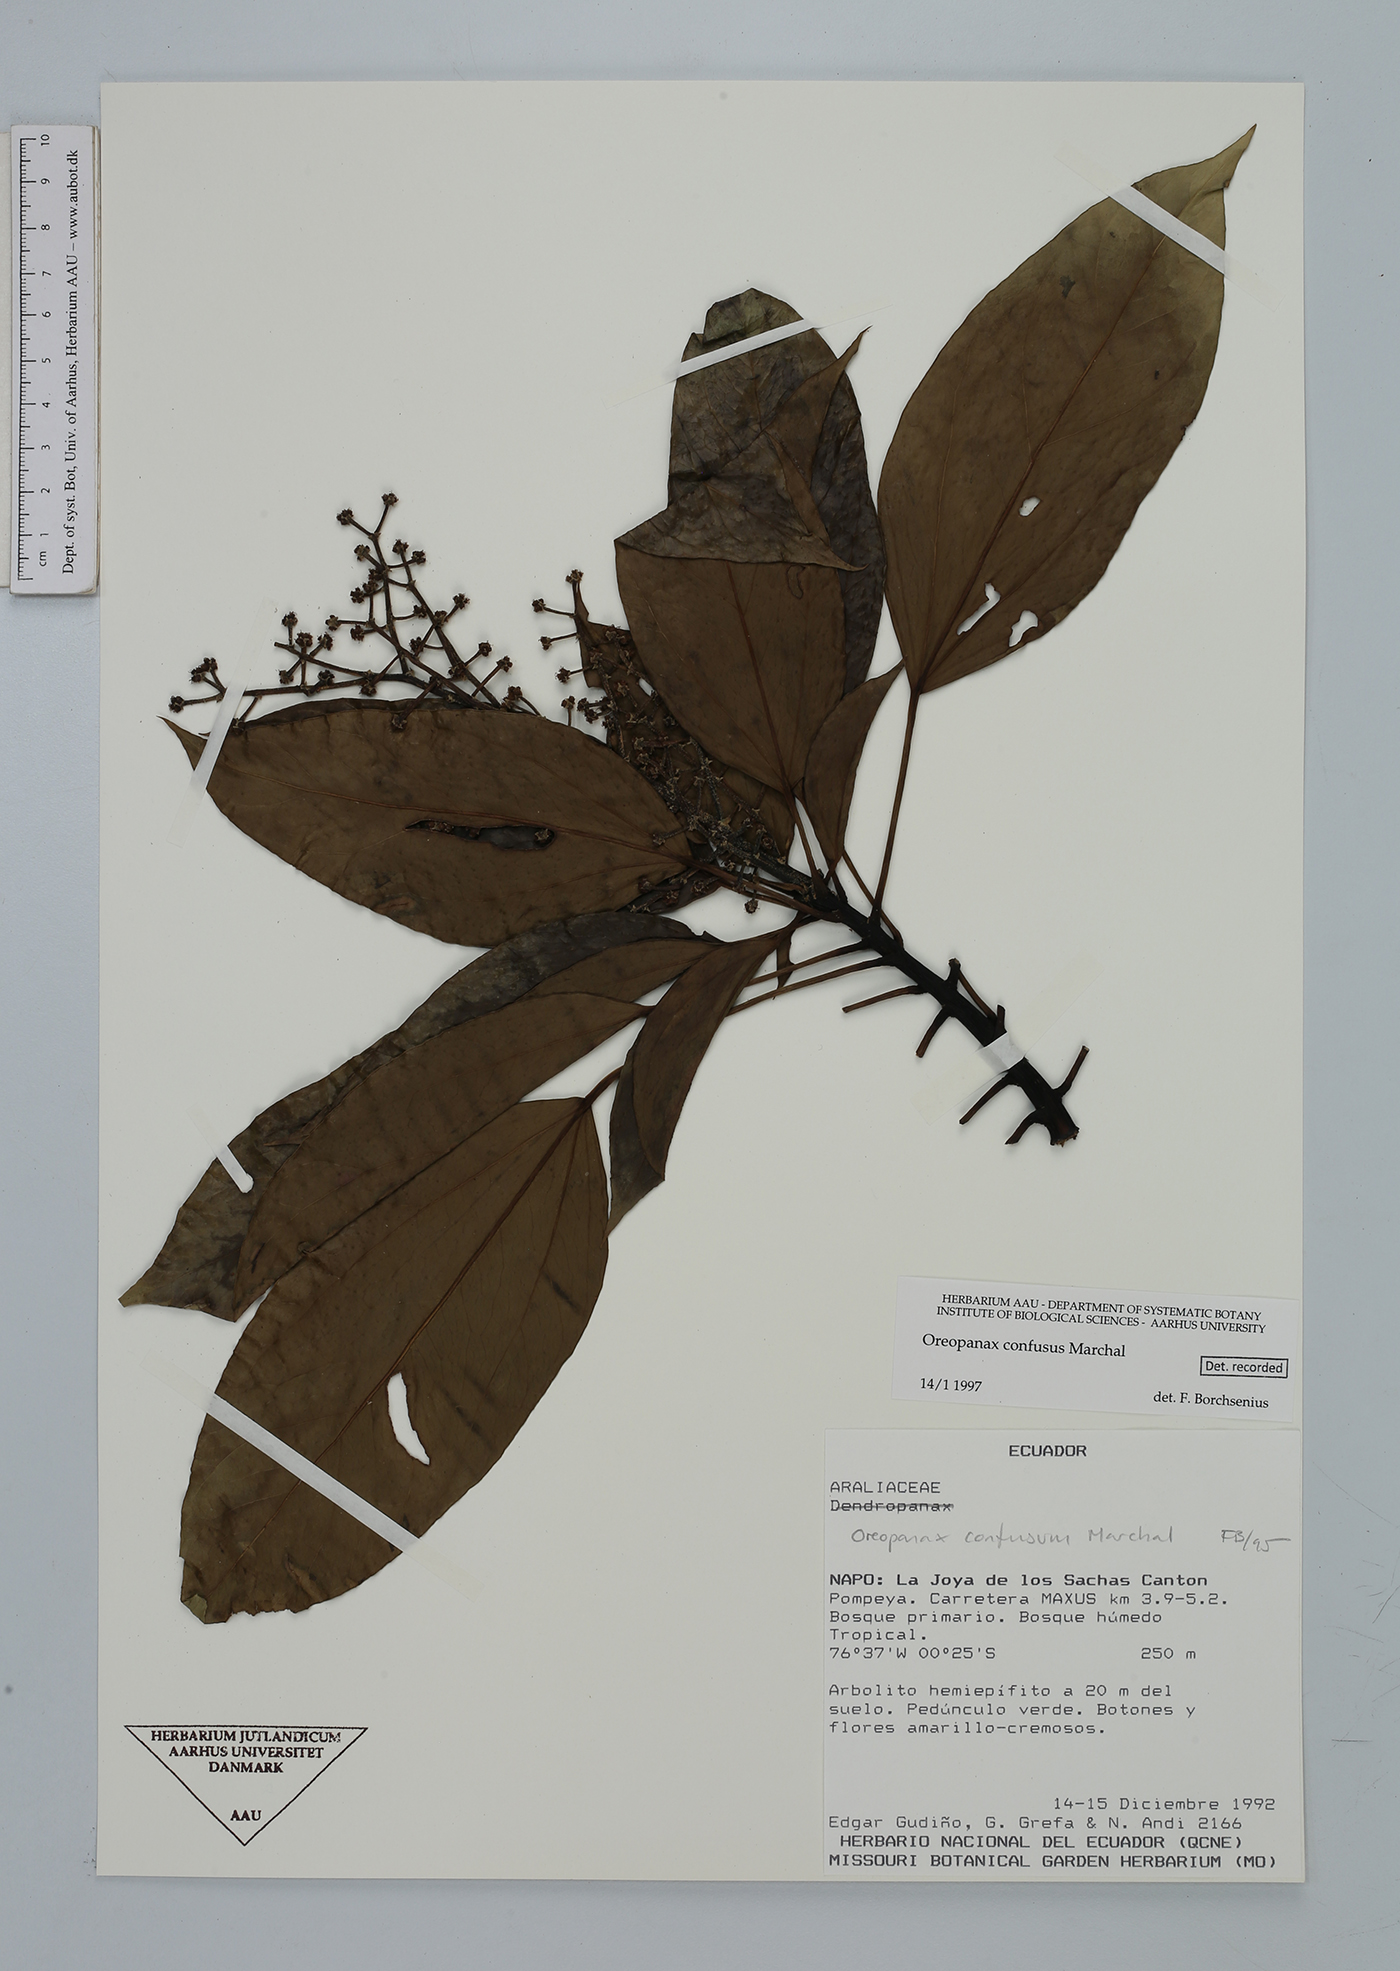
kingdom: Plantae
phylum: Tracheophyta
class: Magnoliopsida
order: Apiales
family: Araliaceae
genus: Oreopanax
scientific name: Oreopanax confusus
